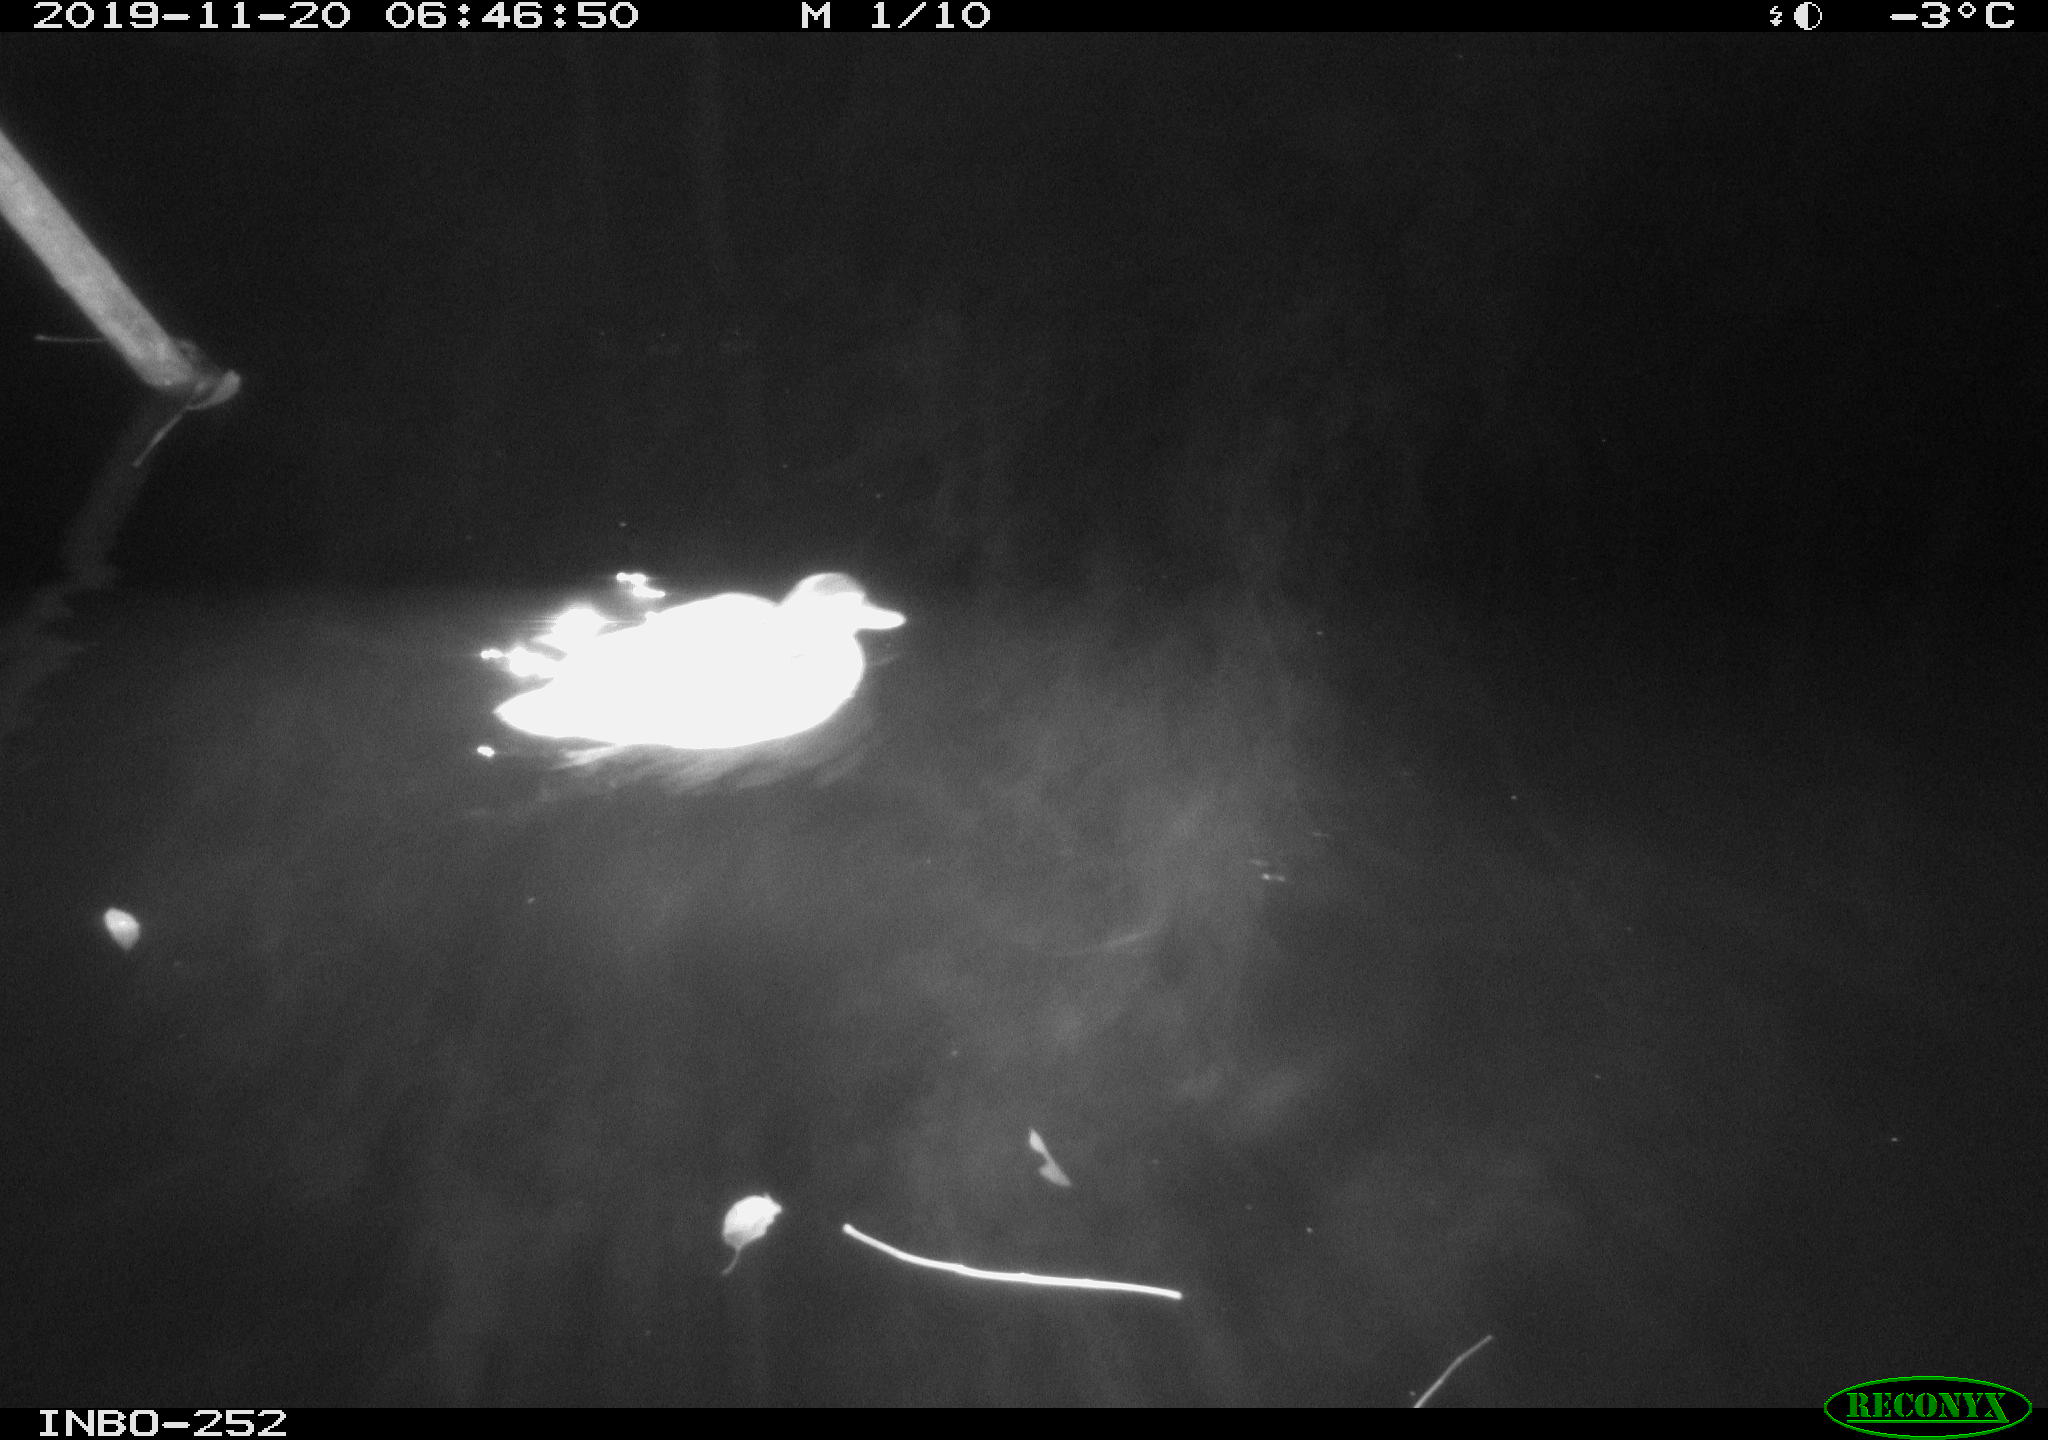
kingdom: Animalia
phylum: Chordata
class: Aves
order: Anseriformes
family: Anatidae
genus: Anas
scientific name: Anas platyrhynchos
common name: Mallard
